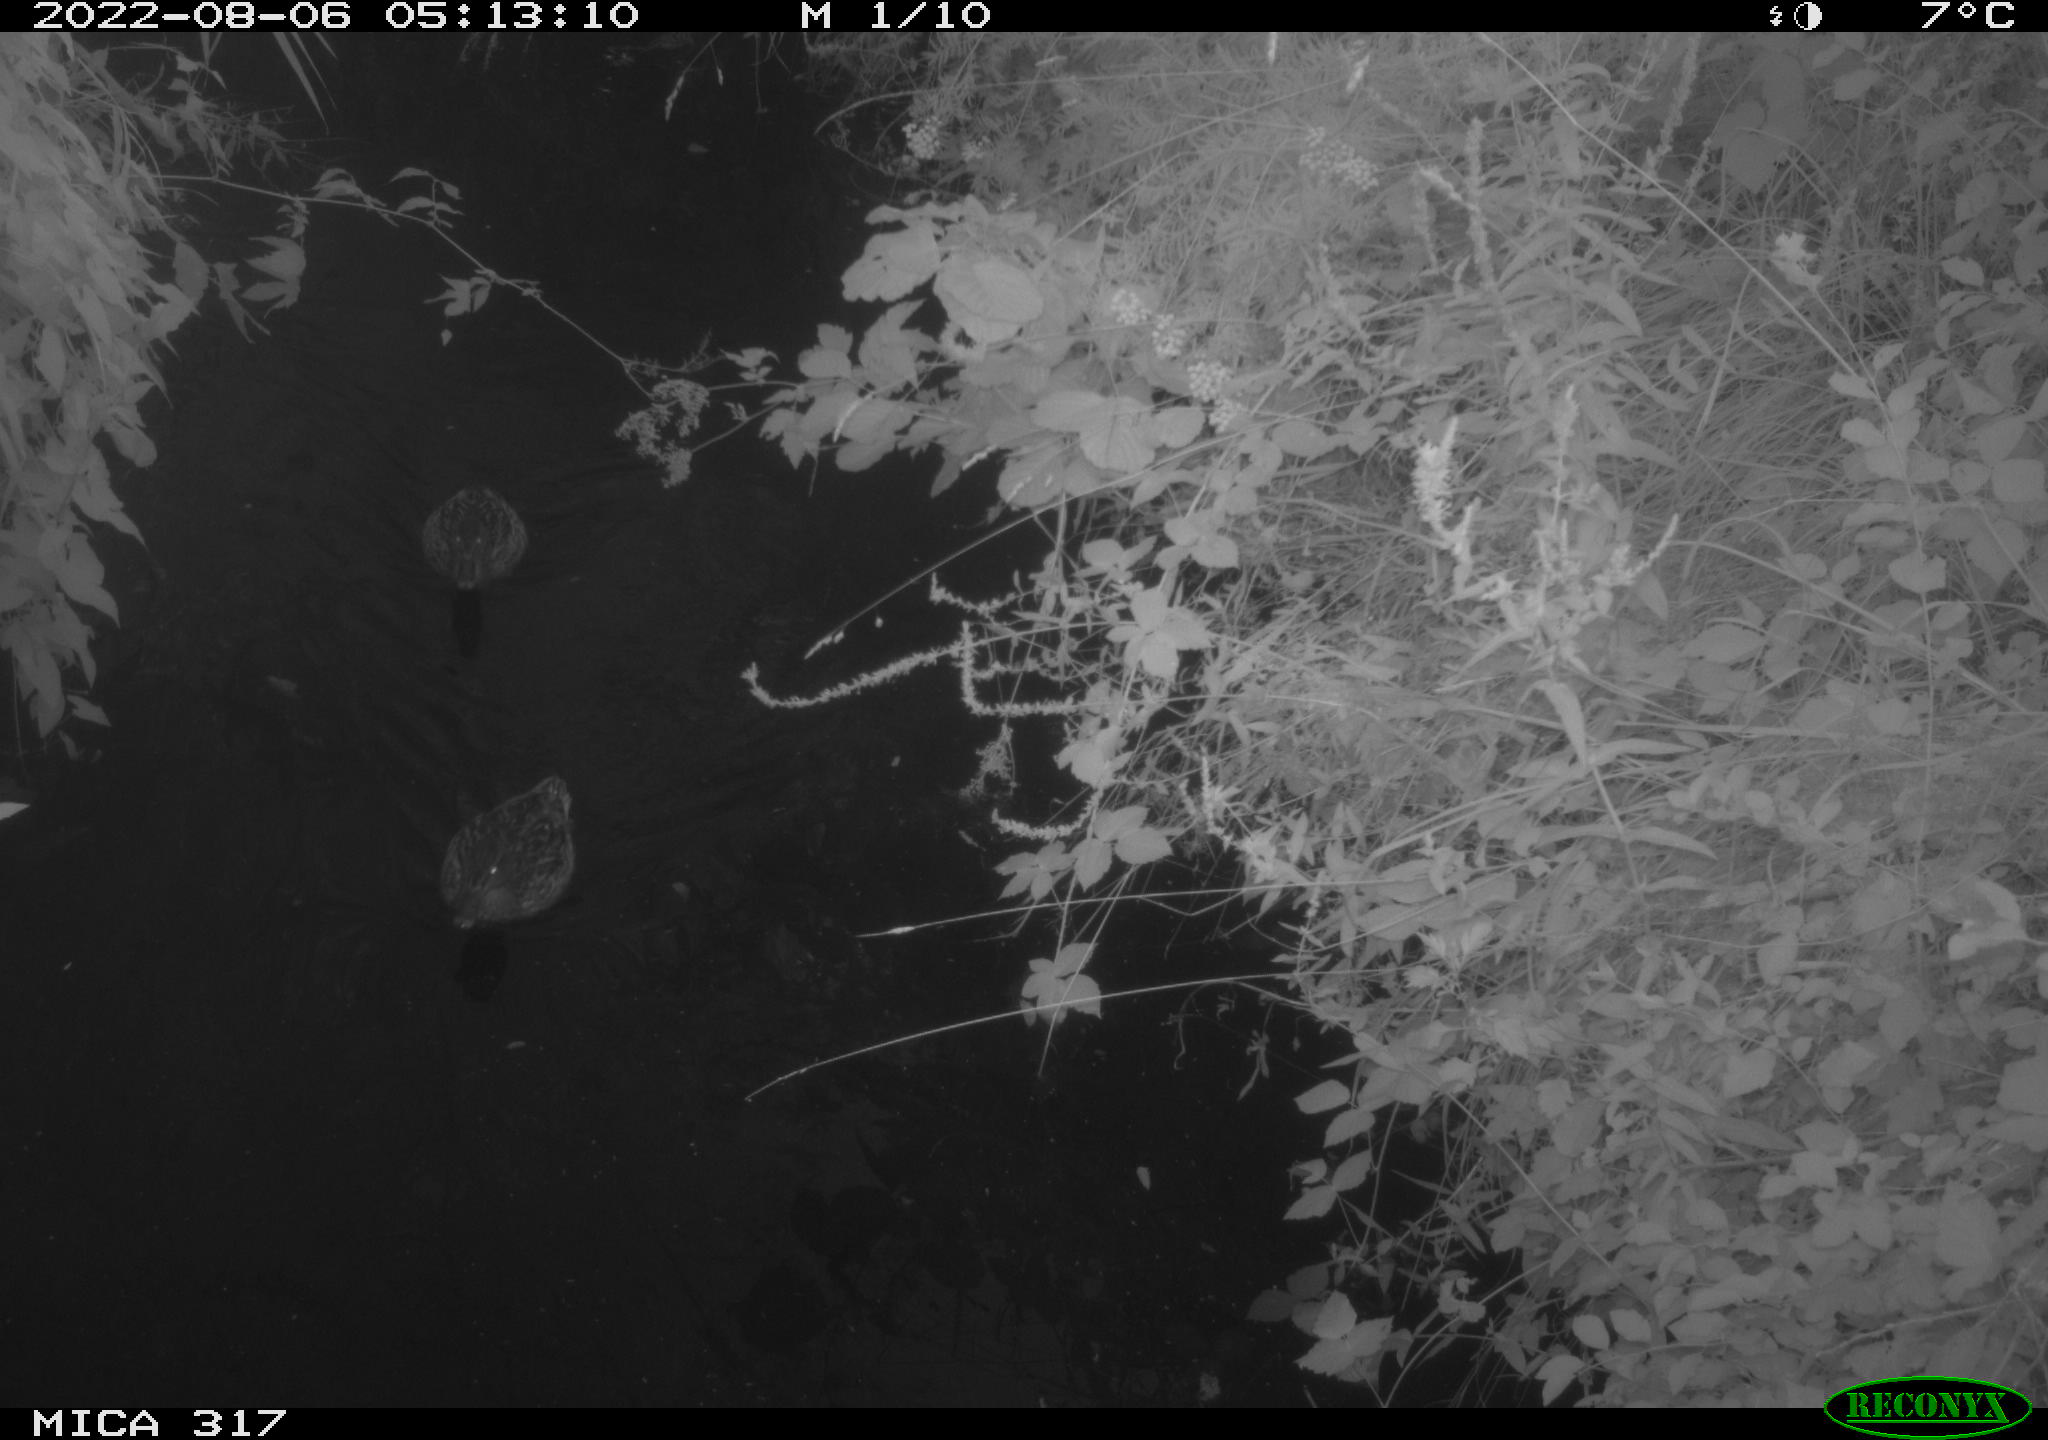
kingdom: Animalia
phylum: Chordata
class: Aves
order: Anseriformes
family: Anatidae
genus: Anas
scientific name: Anas
